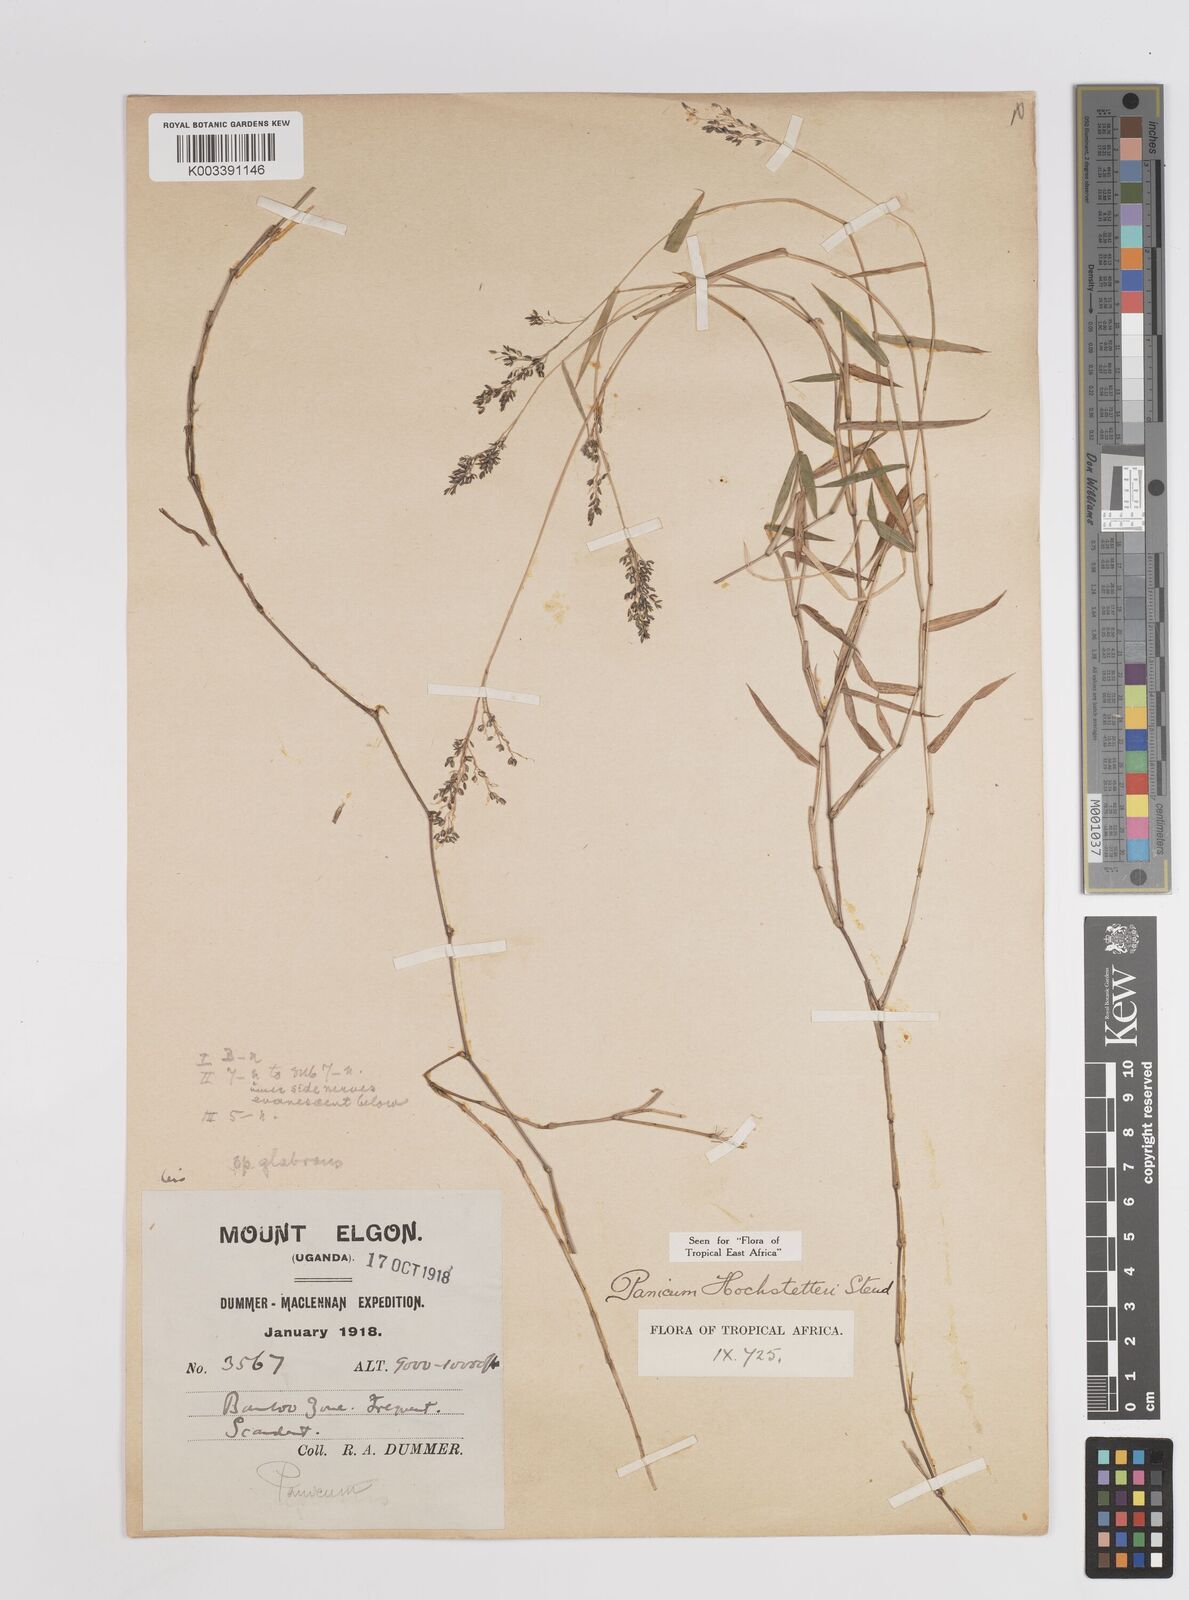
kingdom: Plantae
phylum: Tracheophyta
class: Liliopsida
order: Poales
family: Poaceae
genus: Panicum
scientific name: Panicum hochstetteri
